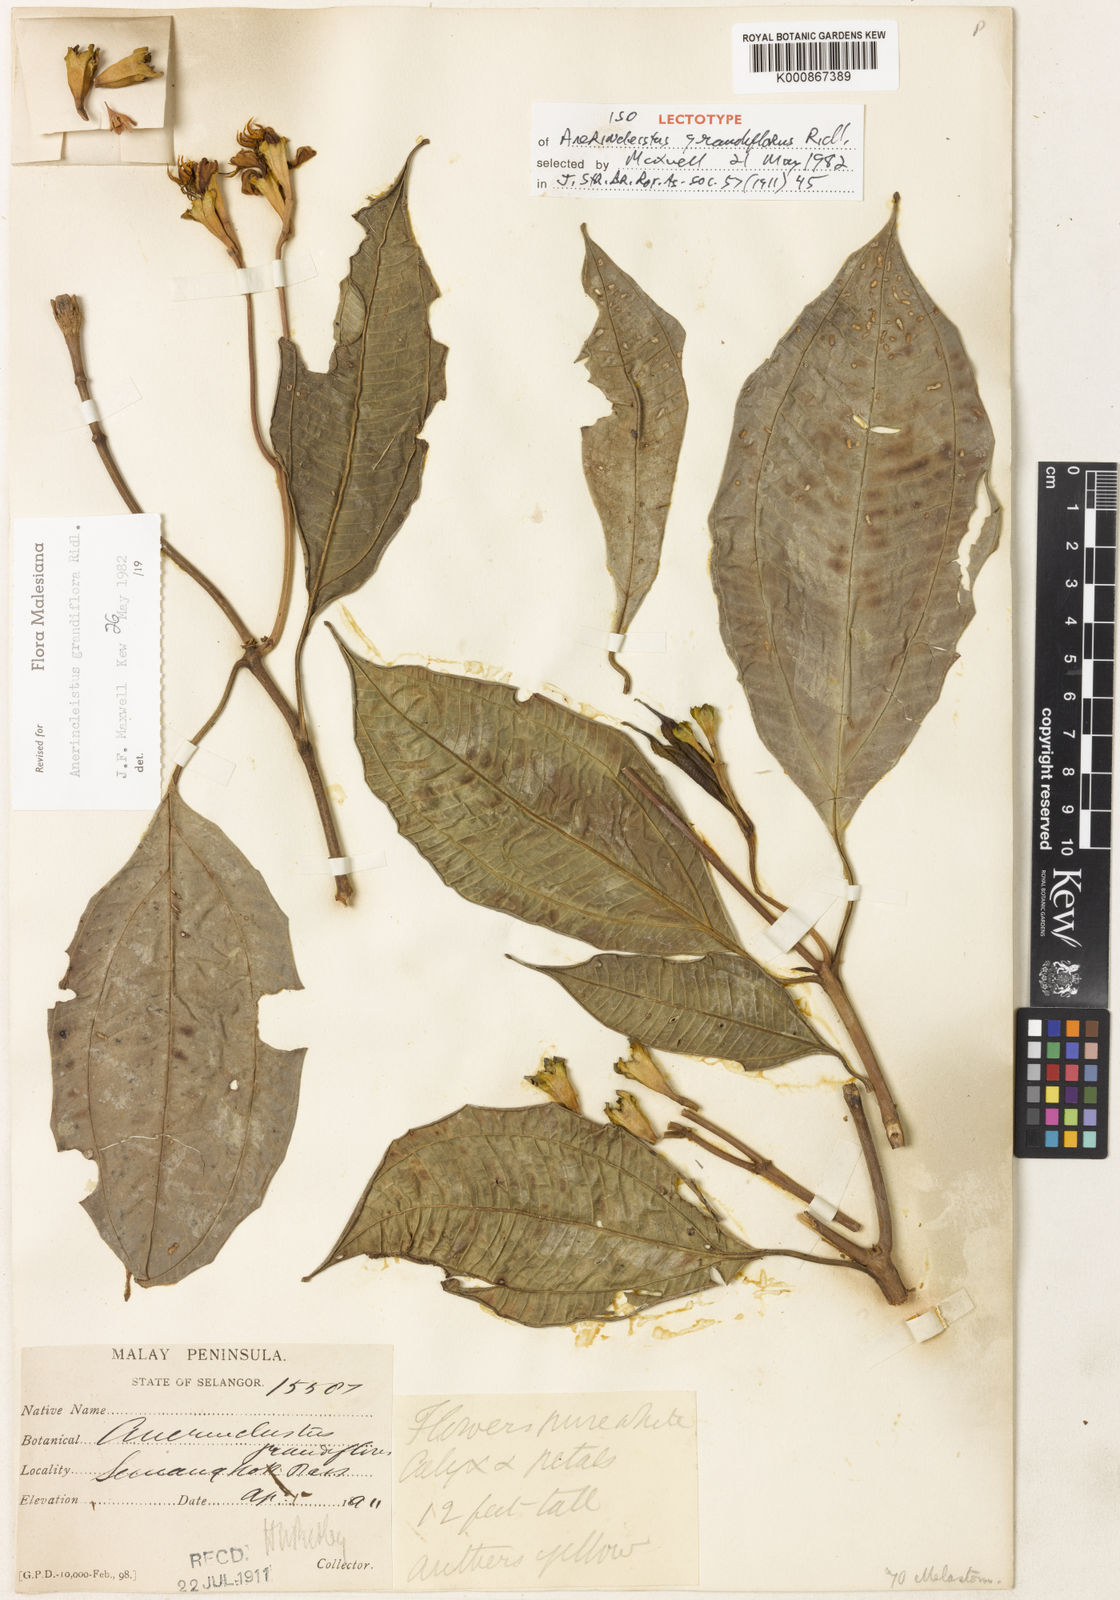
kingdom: Plantae
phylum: Tracheophyta
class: Magnoliopsida
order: Myrtales
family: Melastomataceae
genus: Anerincleistus
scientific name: Anerincleistus grandiflorus
